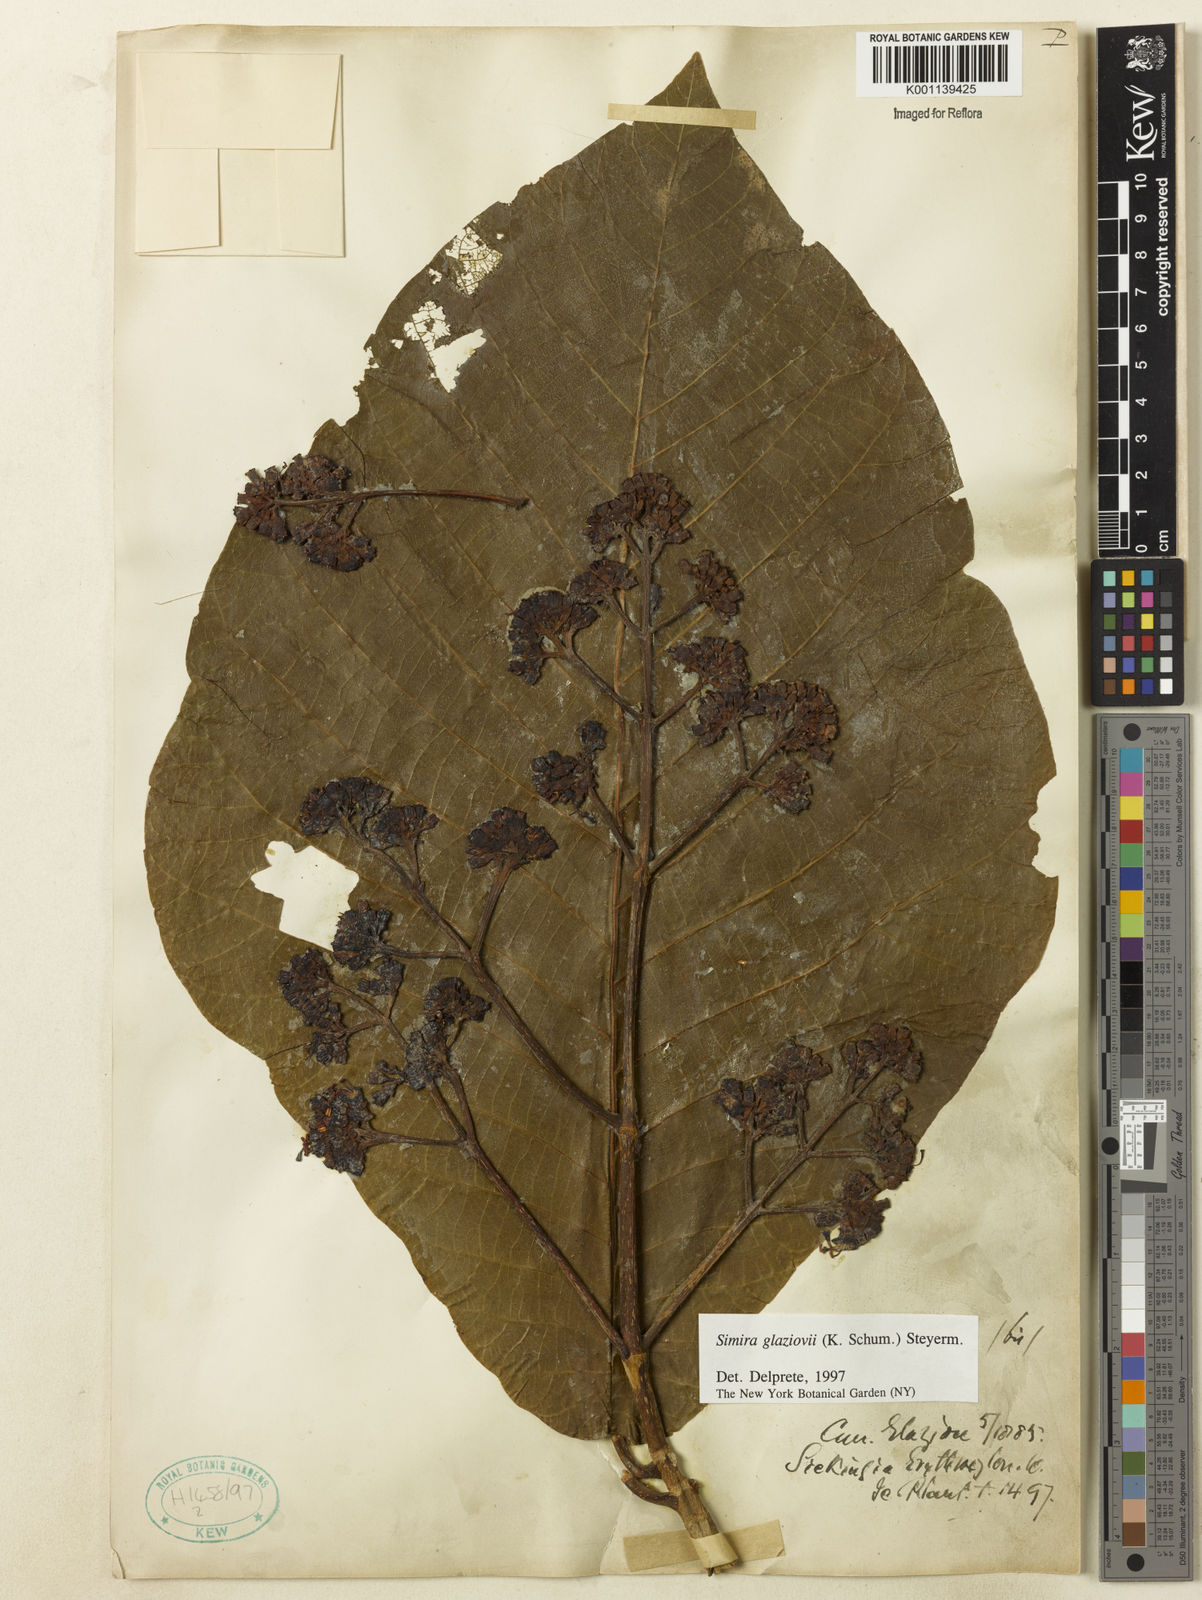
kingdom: Plantae
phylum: Tracheophyta
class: Magnoliopsida
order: Gentianales
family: Rubiaceae
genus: Simira
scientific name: Simira alba
